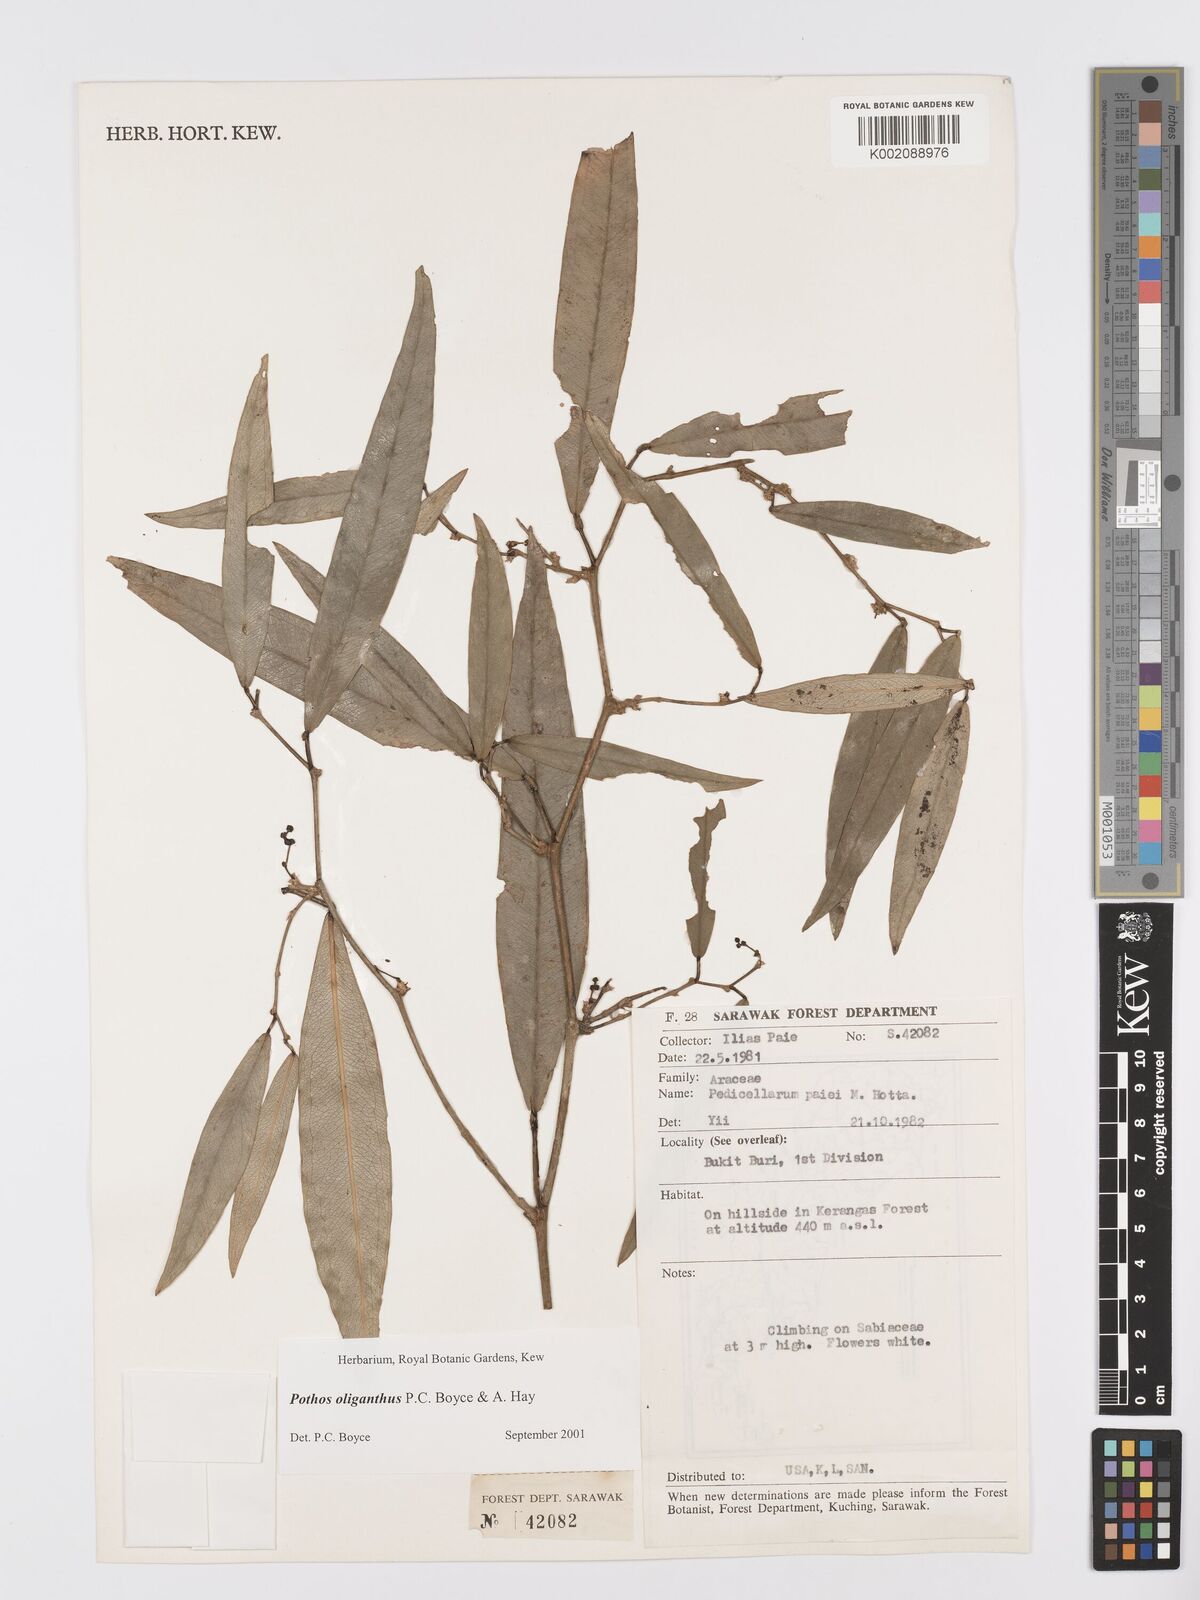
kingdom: Plantae
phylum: Tracheophyta
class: Liliopsida
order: Alismatales
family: Araceae
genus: Pothos
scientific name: Pothos oliganthus
